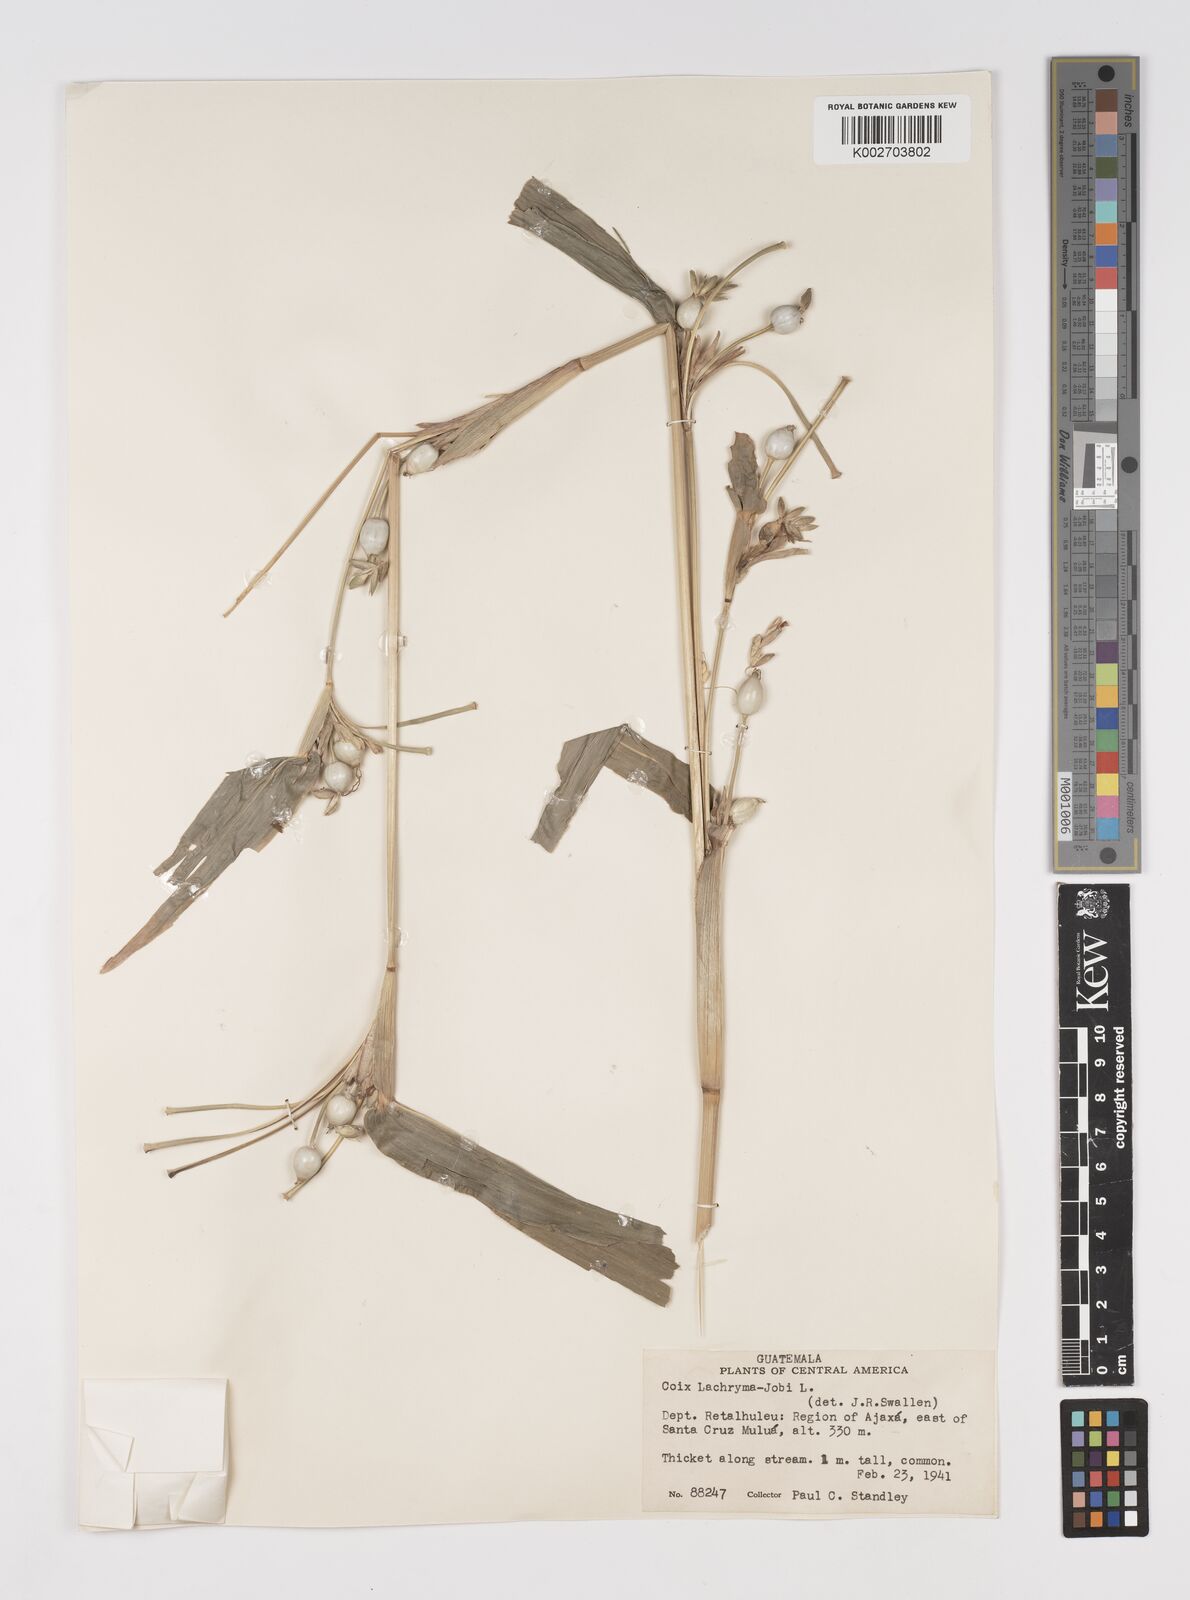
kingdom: Plantae
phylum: Tracheophyta
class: Liliopsida
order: Poales
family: Poaceae
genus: Coix
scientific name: Coix lacryma-jobi
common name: Job's tears
